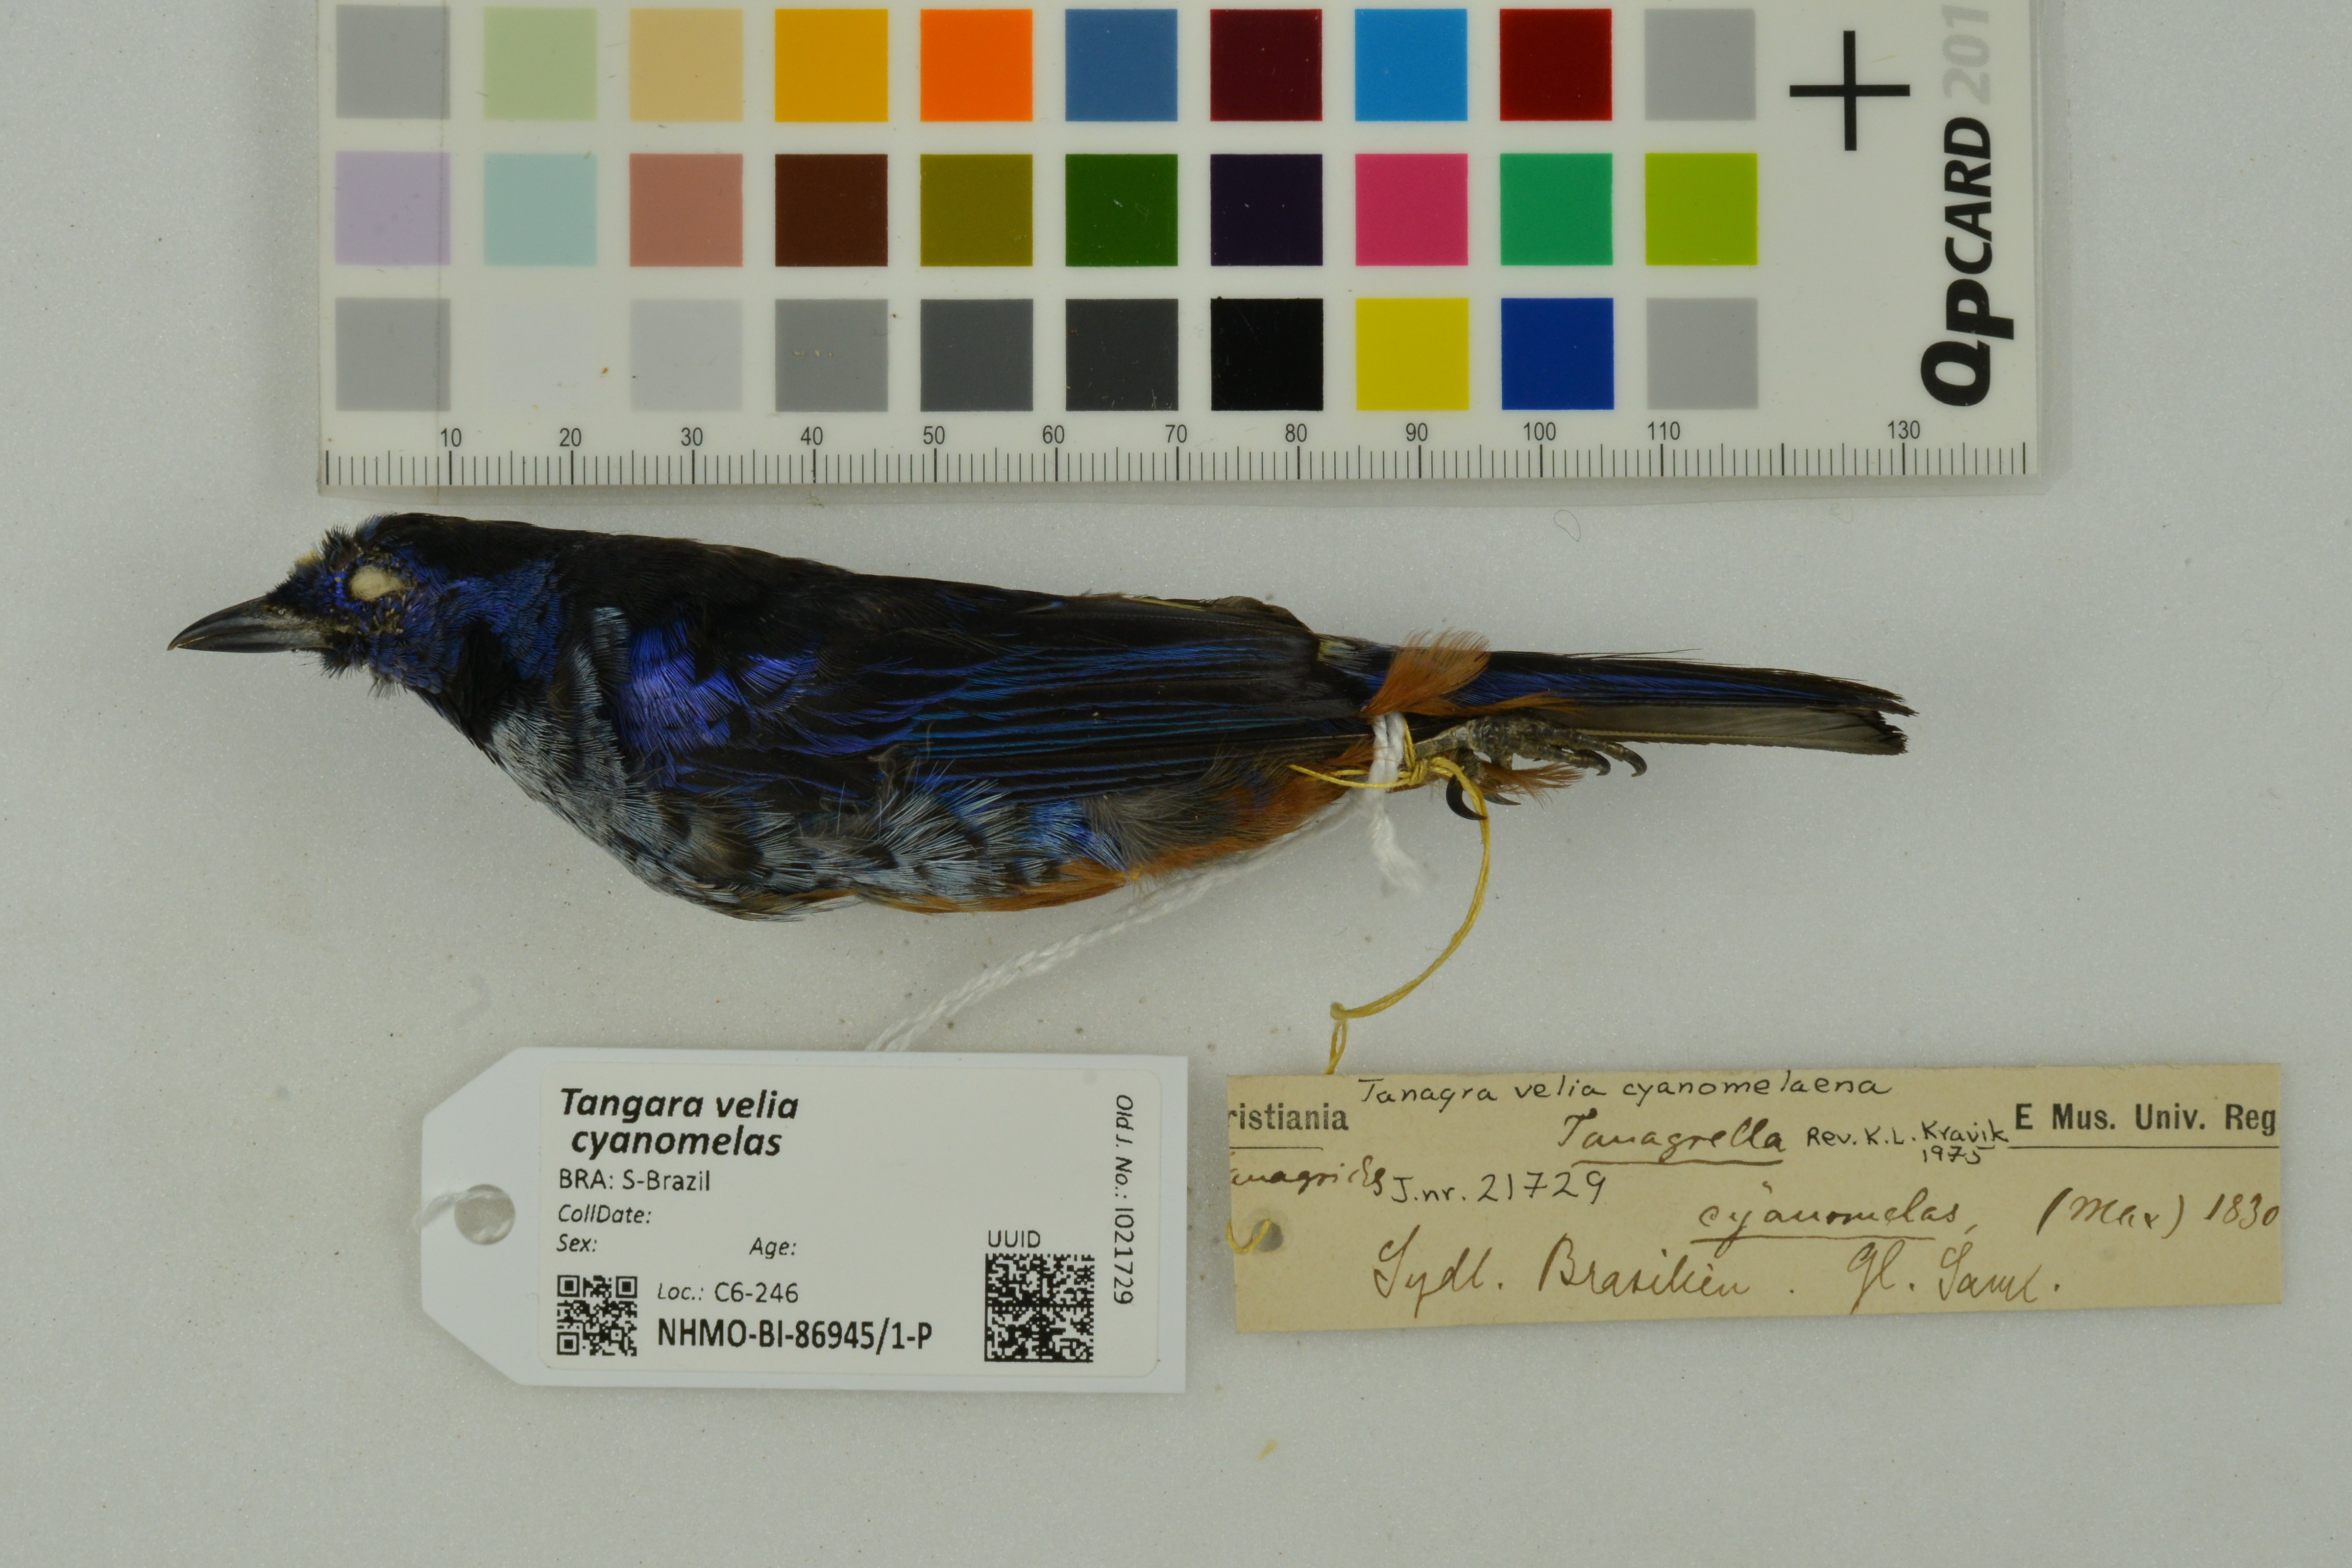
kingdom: Animalia
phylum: Chordata
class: Aves
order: Passeriformes
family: Thraupidae
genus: Tangara
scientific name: Tangara velia
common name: Opal-rumped tanager
